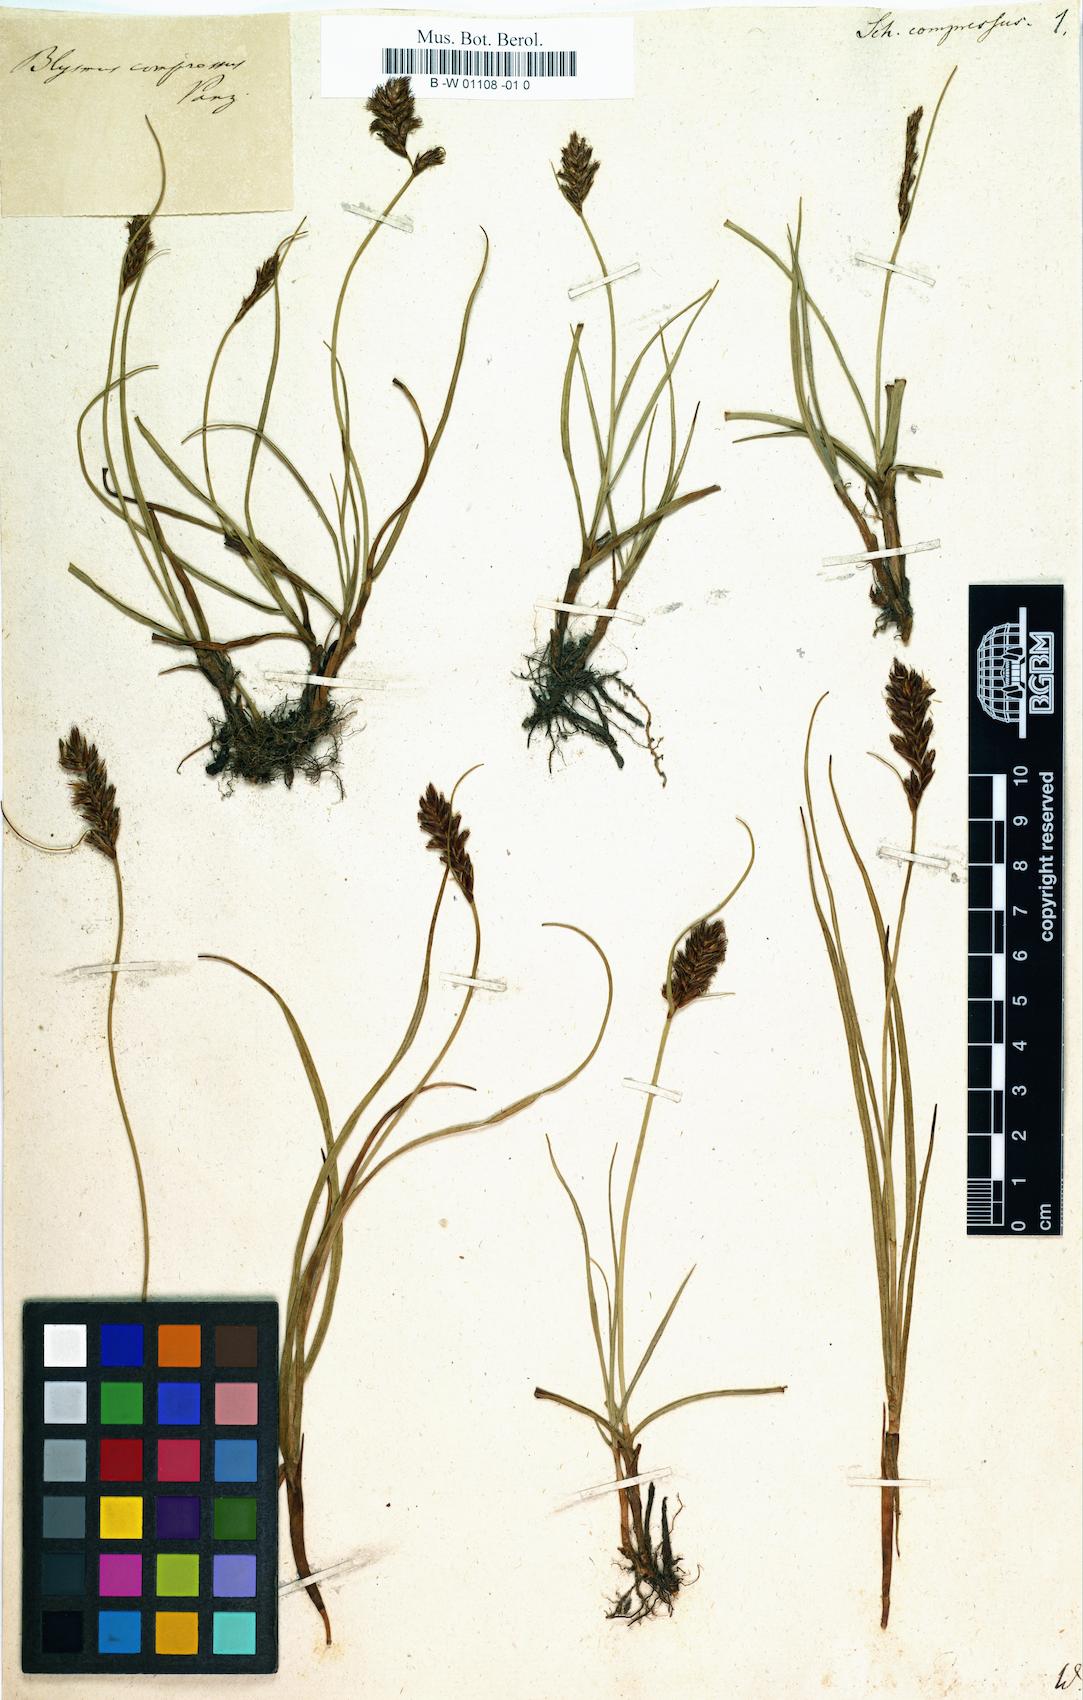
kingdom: Plantae
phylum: Tracheophyta
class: Liliopsida
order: Poales
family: Cyperaceae
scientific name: Cyperaceae
